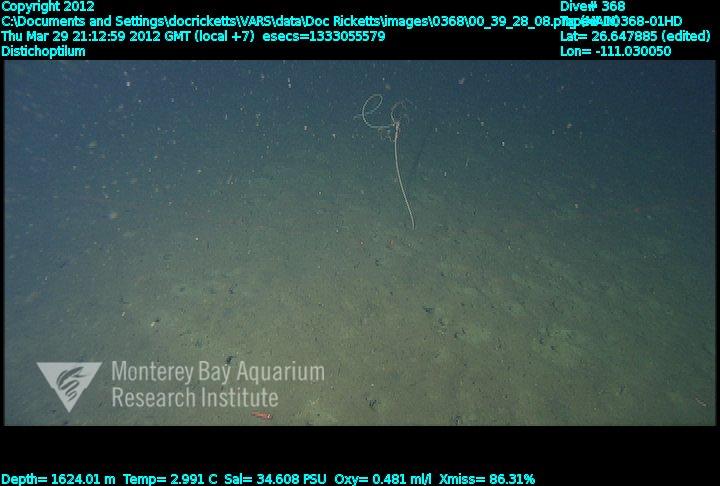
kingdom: Animalia
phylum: Cnidaria
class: Anthozoa
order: Scleralcyonacea
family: Protoptilidae
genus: Distichoptilum
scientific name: Distichoptilum gracile
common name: Slender sea pen
